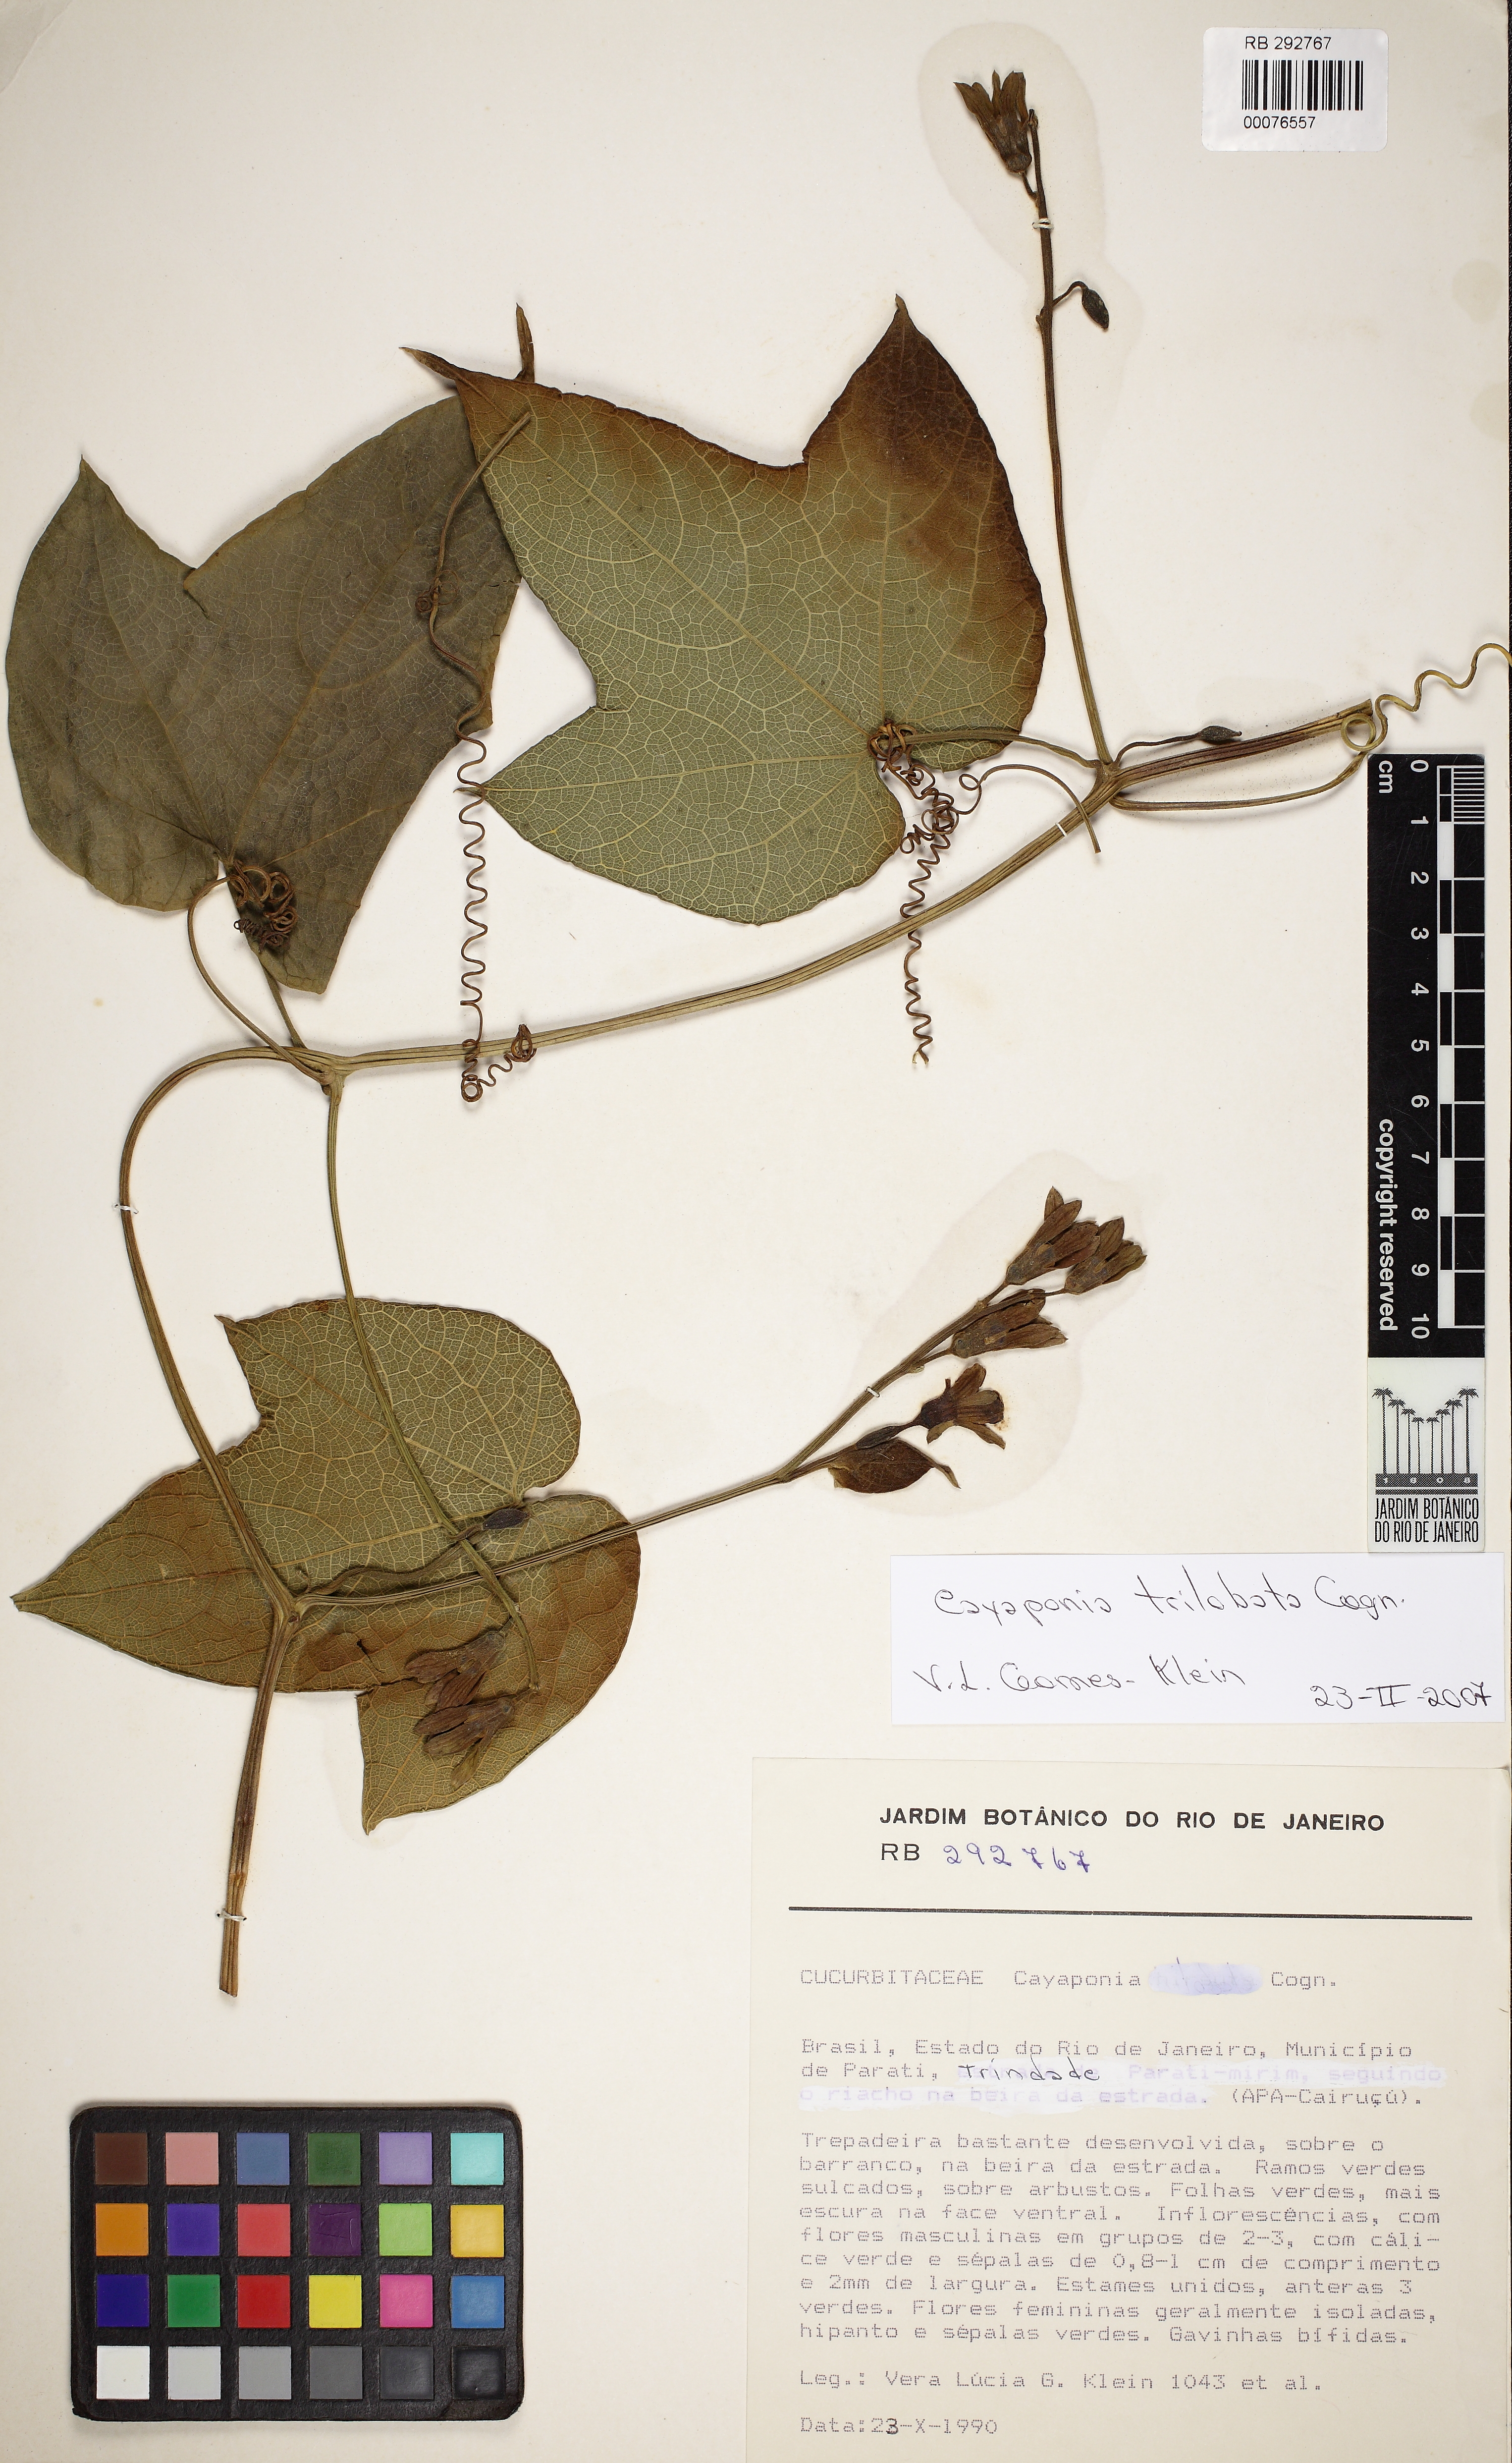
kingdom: Plantae
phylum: Tracheophyta
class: Magnoliopsida
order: Cucurbitales
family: Cucurbitaceae
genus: Cayaponia
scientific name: Cayaponia trilobata
